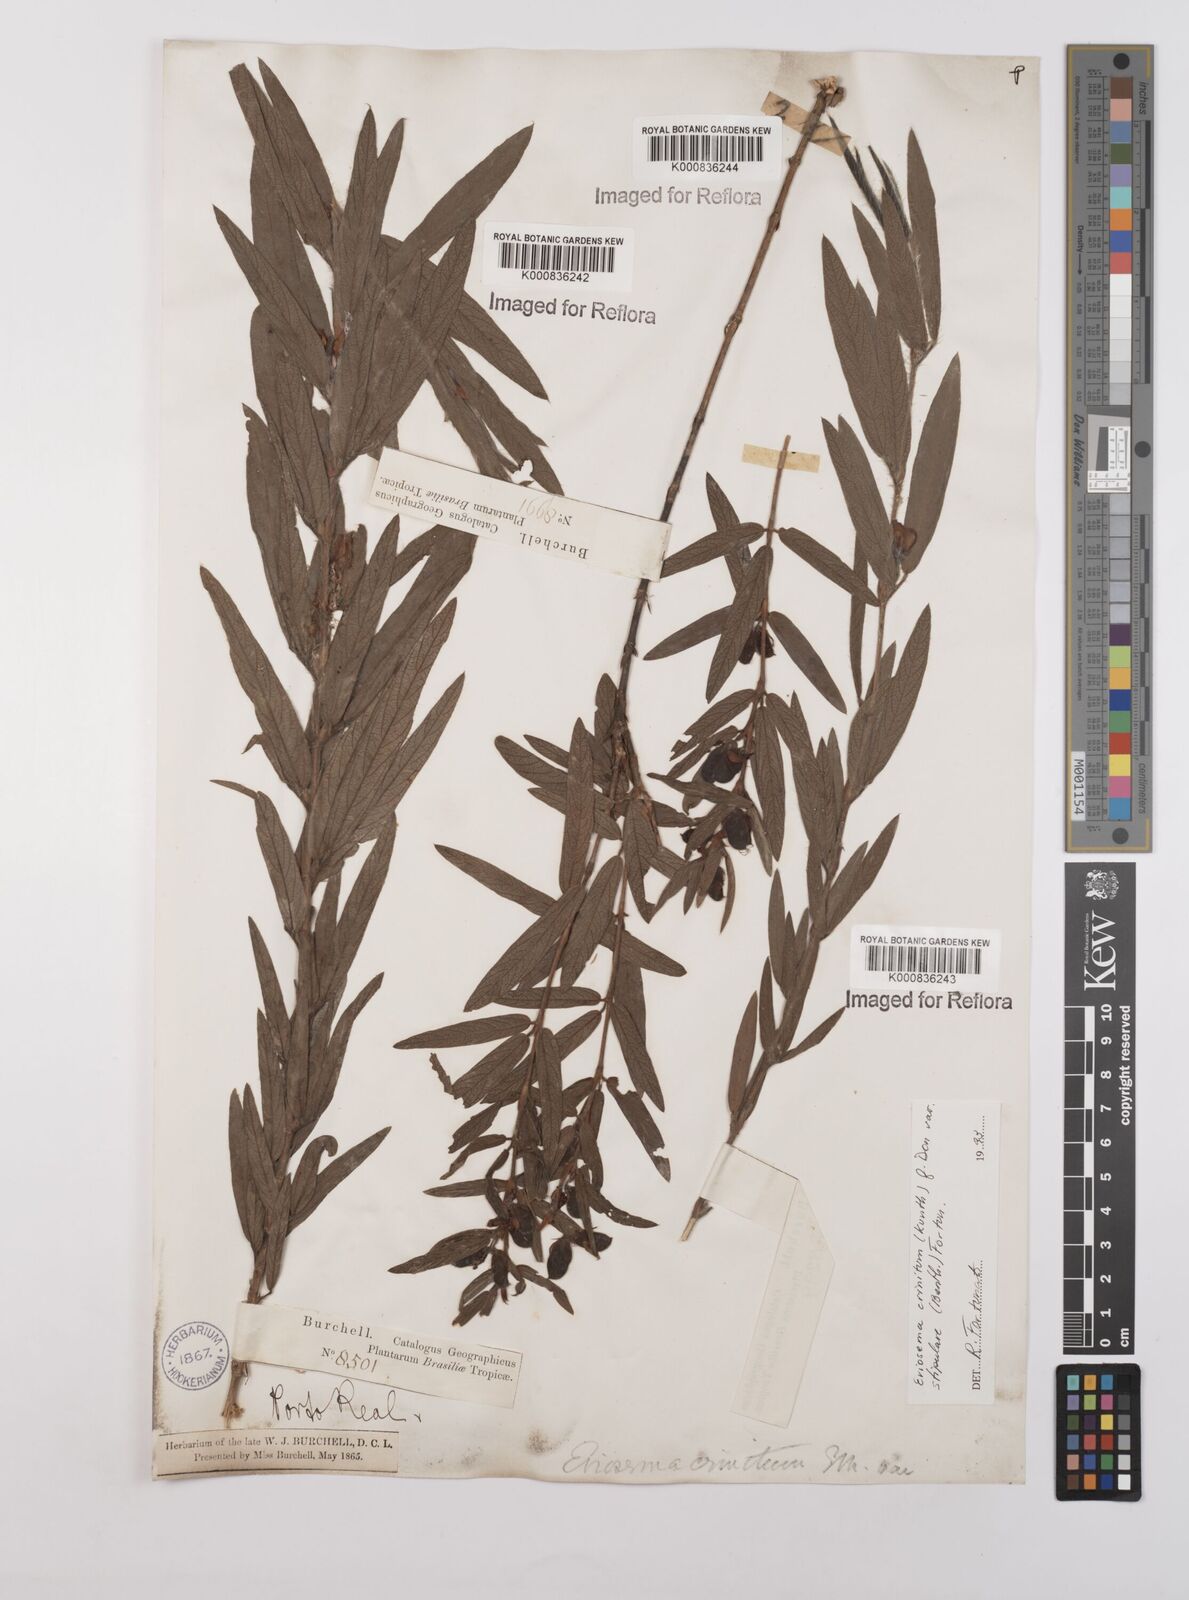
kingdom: Plantae
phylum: Tracheophyta
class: Magnoliopsida
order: Fabales
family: Fabaceae
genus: Eriosema
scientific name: Eriosema crinitum
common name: Sand pea
